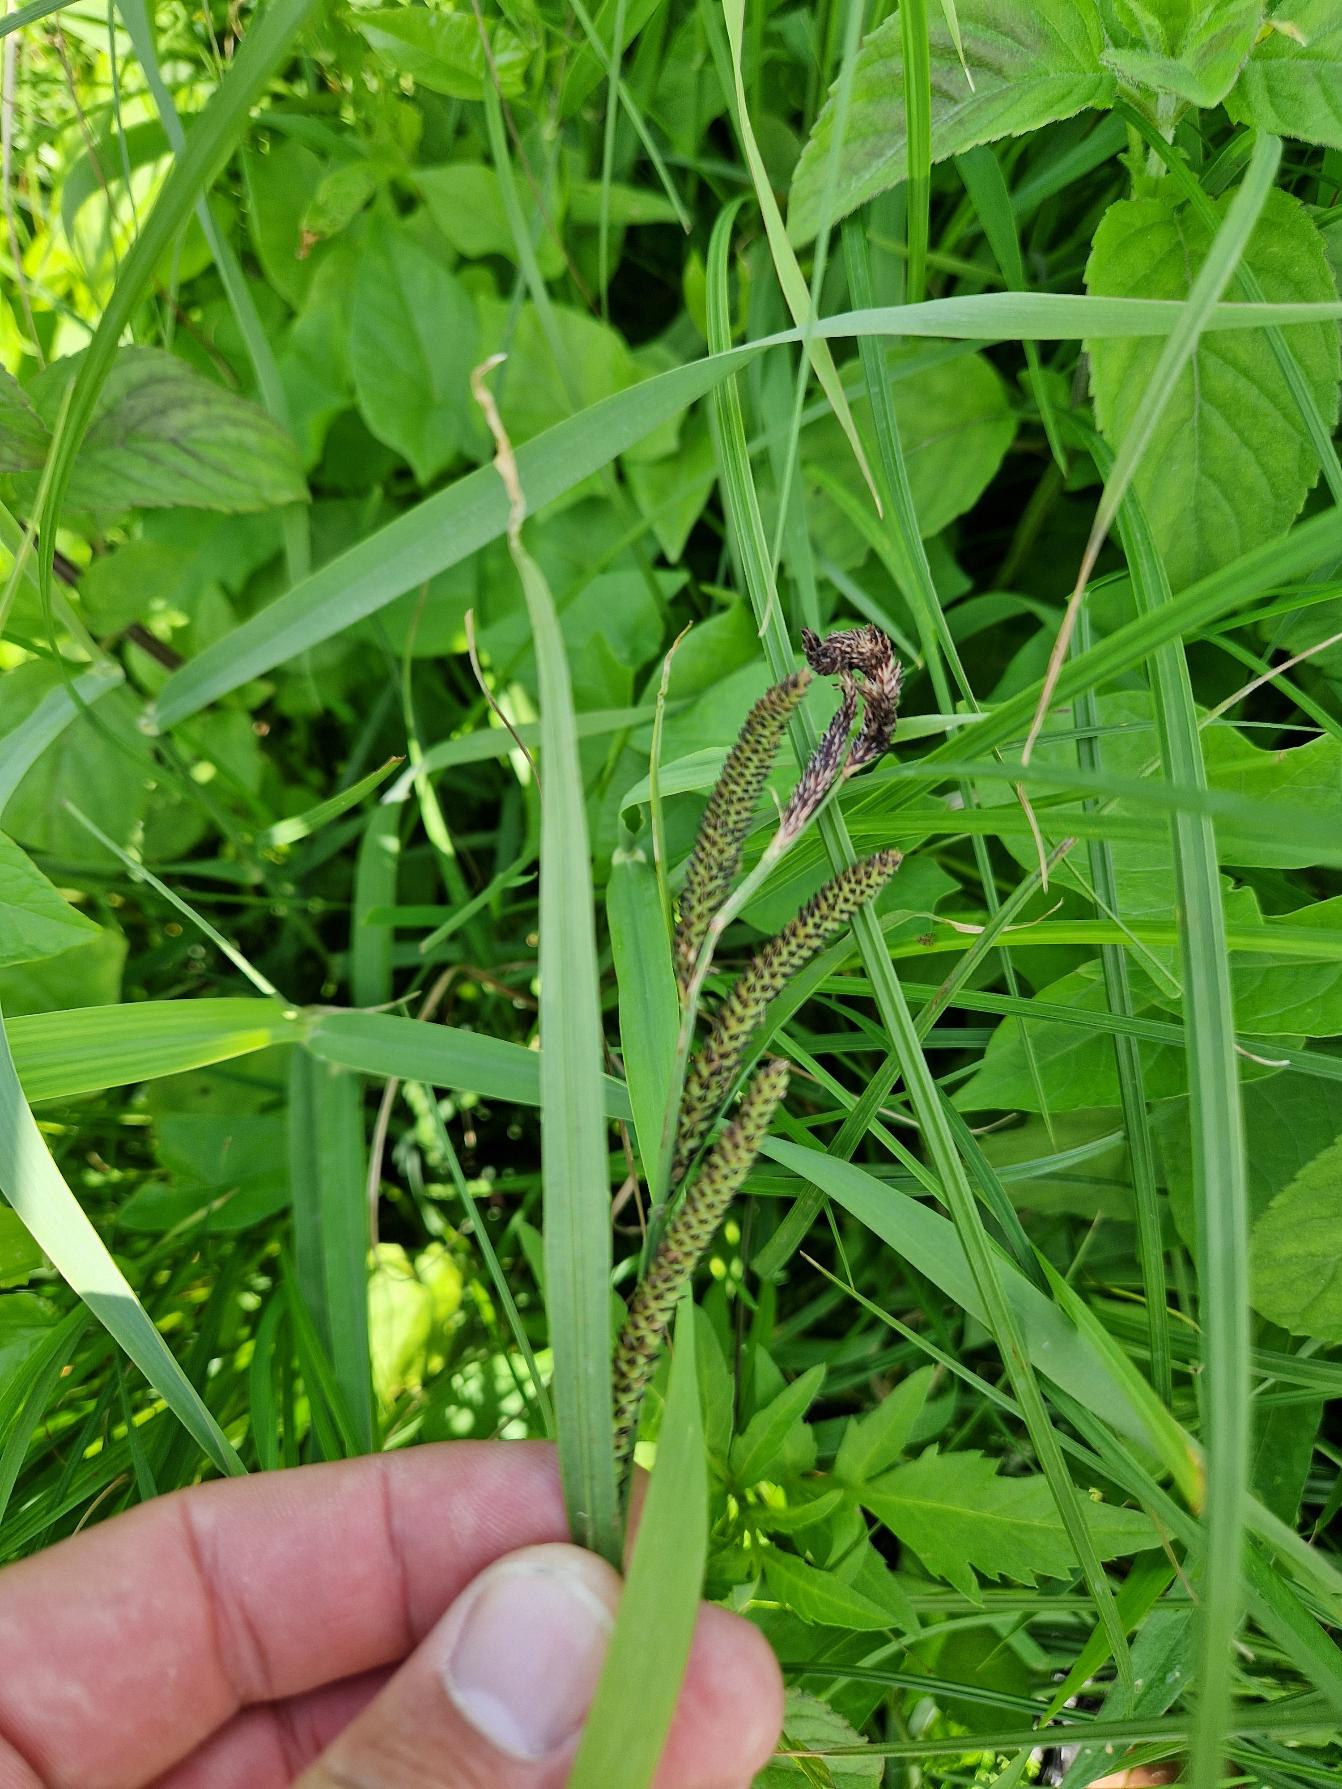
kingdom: Plantae
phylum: Tracheophyta
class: Liliopsida
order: Poales
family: Cyperaceae
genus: Carex
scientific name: Carex acuta
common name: Nikkende star
